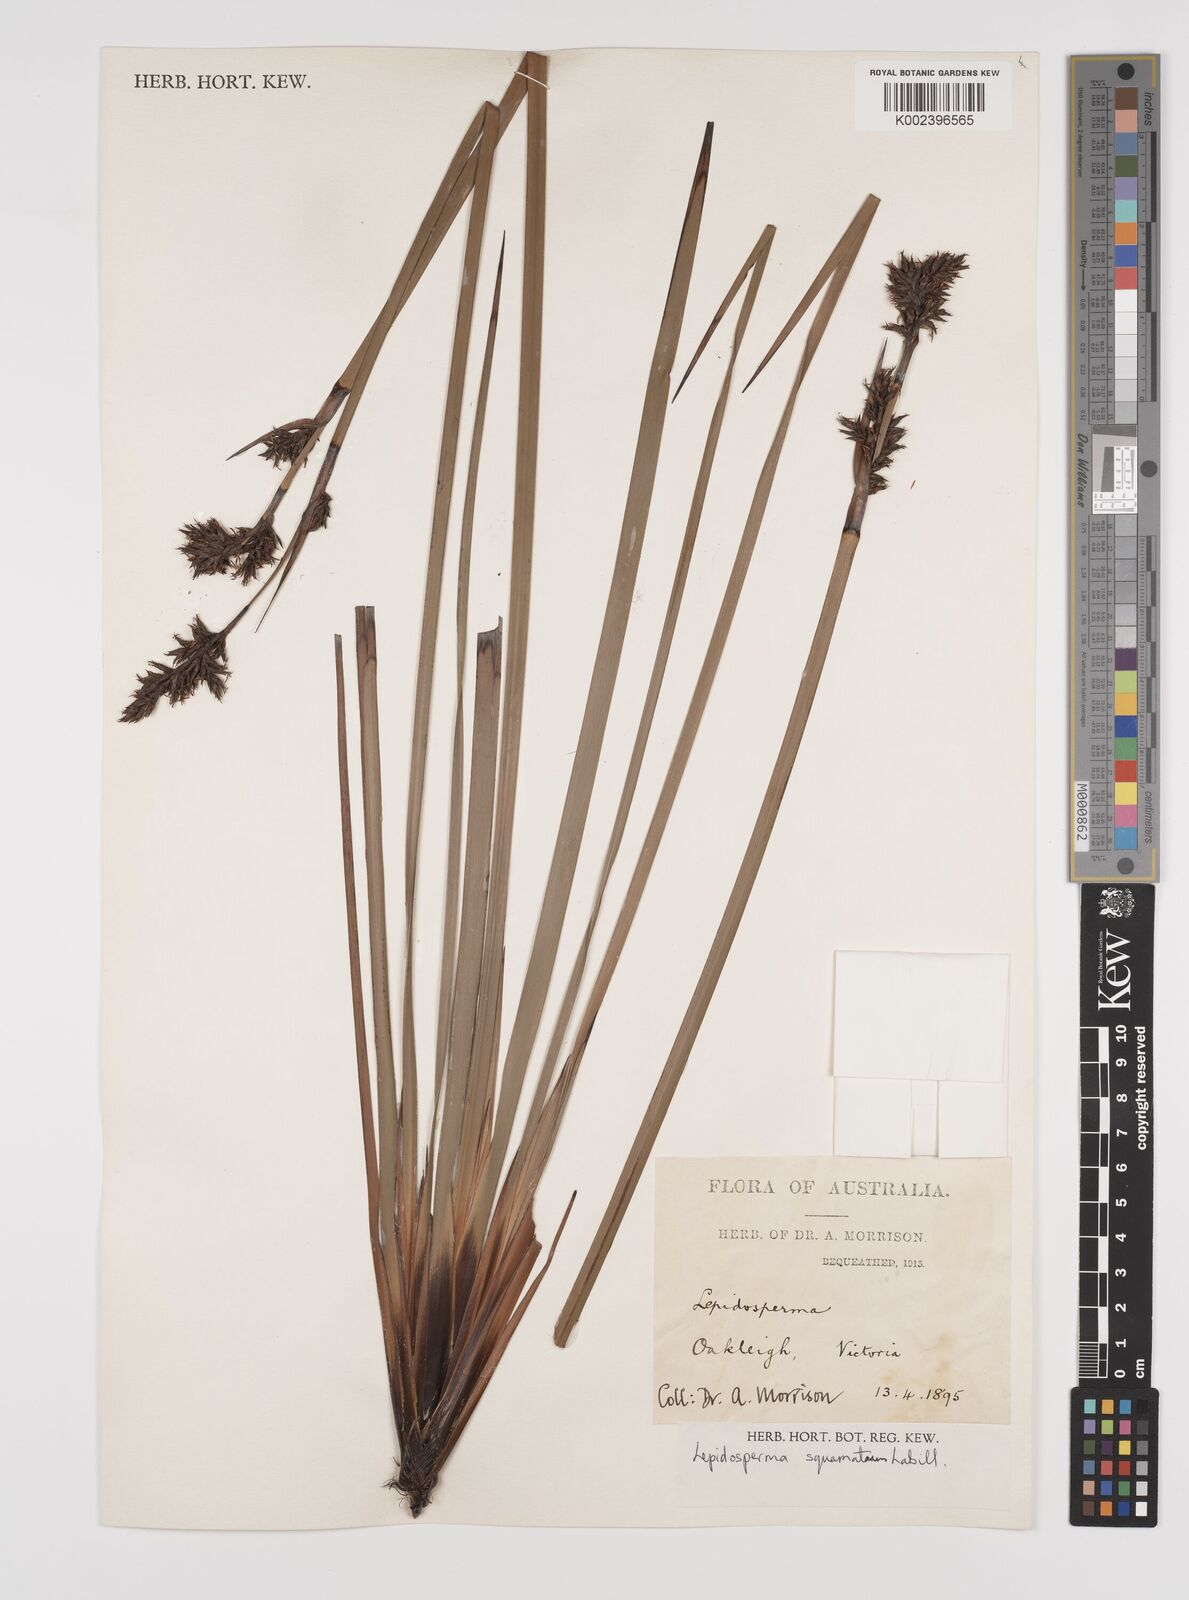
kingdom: Plantae
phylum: Tracheophyta
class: Liliopsida
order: Poales
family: Cyperaceae
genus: Lepidosperma
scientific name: Lepidosperma concavum
